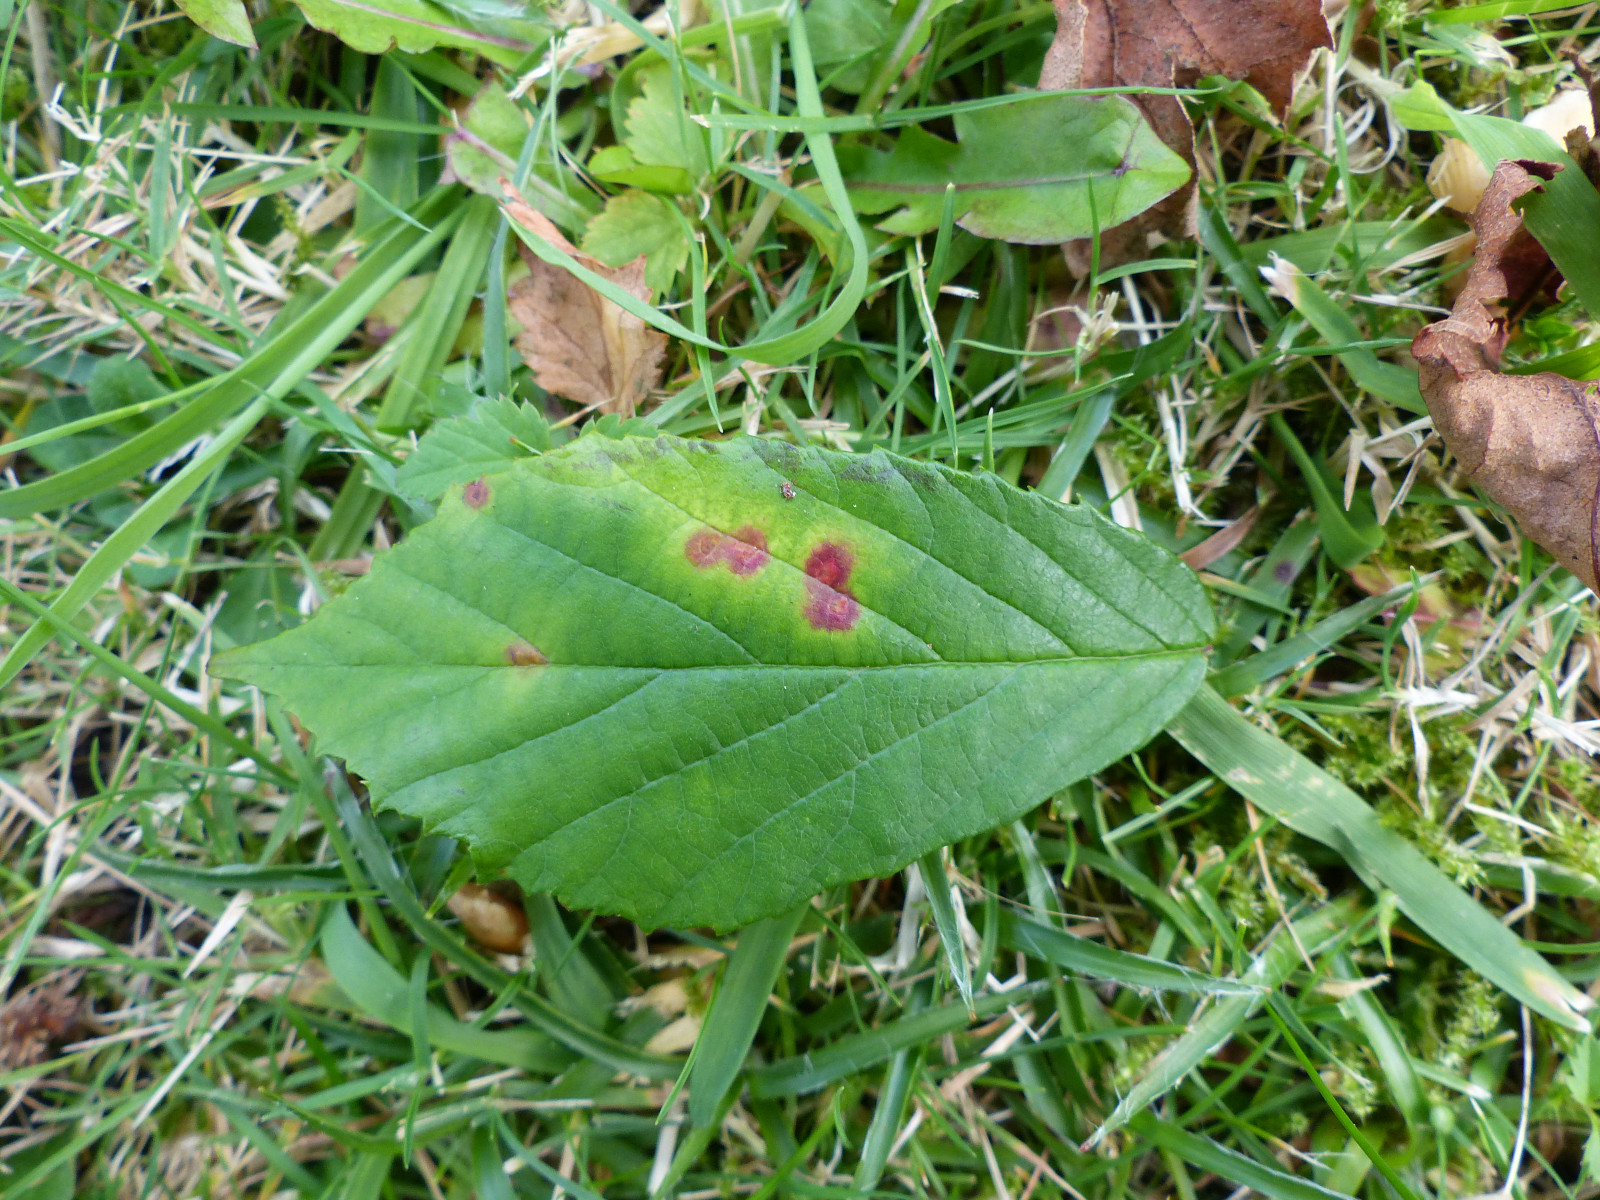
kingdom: Fungi
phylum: Basidiomycota
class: Pucciniomycetes
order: Pucciniales
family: Phragmidiaceae
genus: Phragmidium
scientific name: Phragmidium
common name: flercellerust
